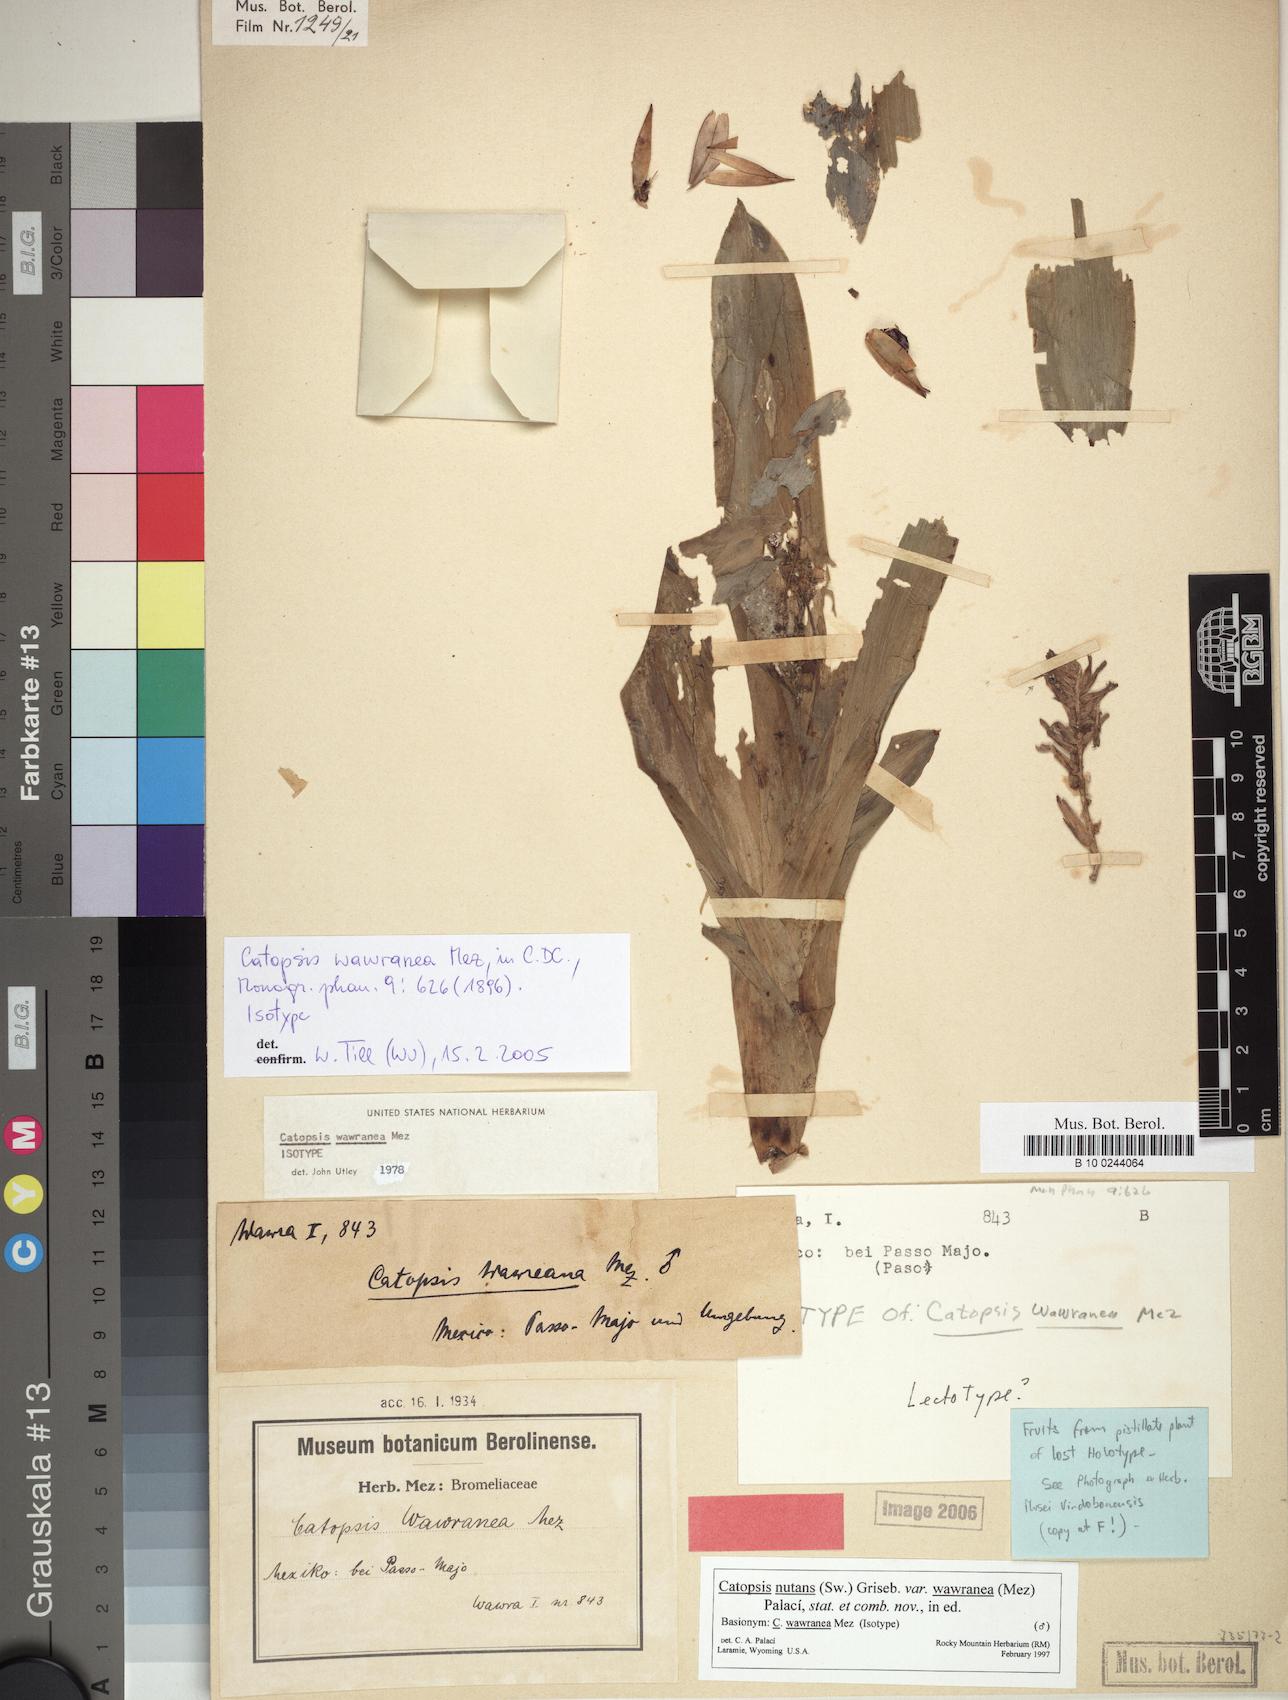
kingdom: Plantae
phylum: Tracheophyta
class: Liliopsida
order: Poales
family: Bromeliaceae
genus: Catopsis
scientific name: Catopsis nutans
